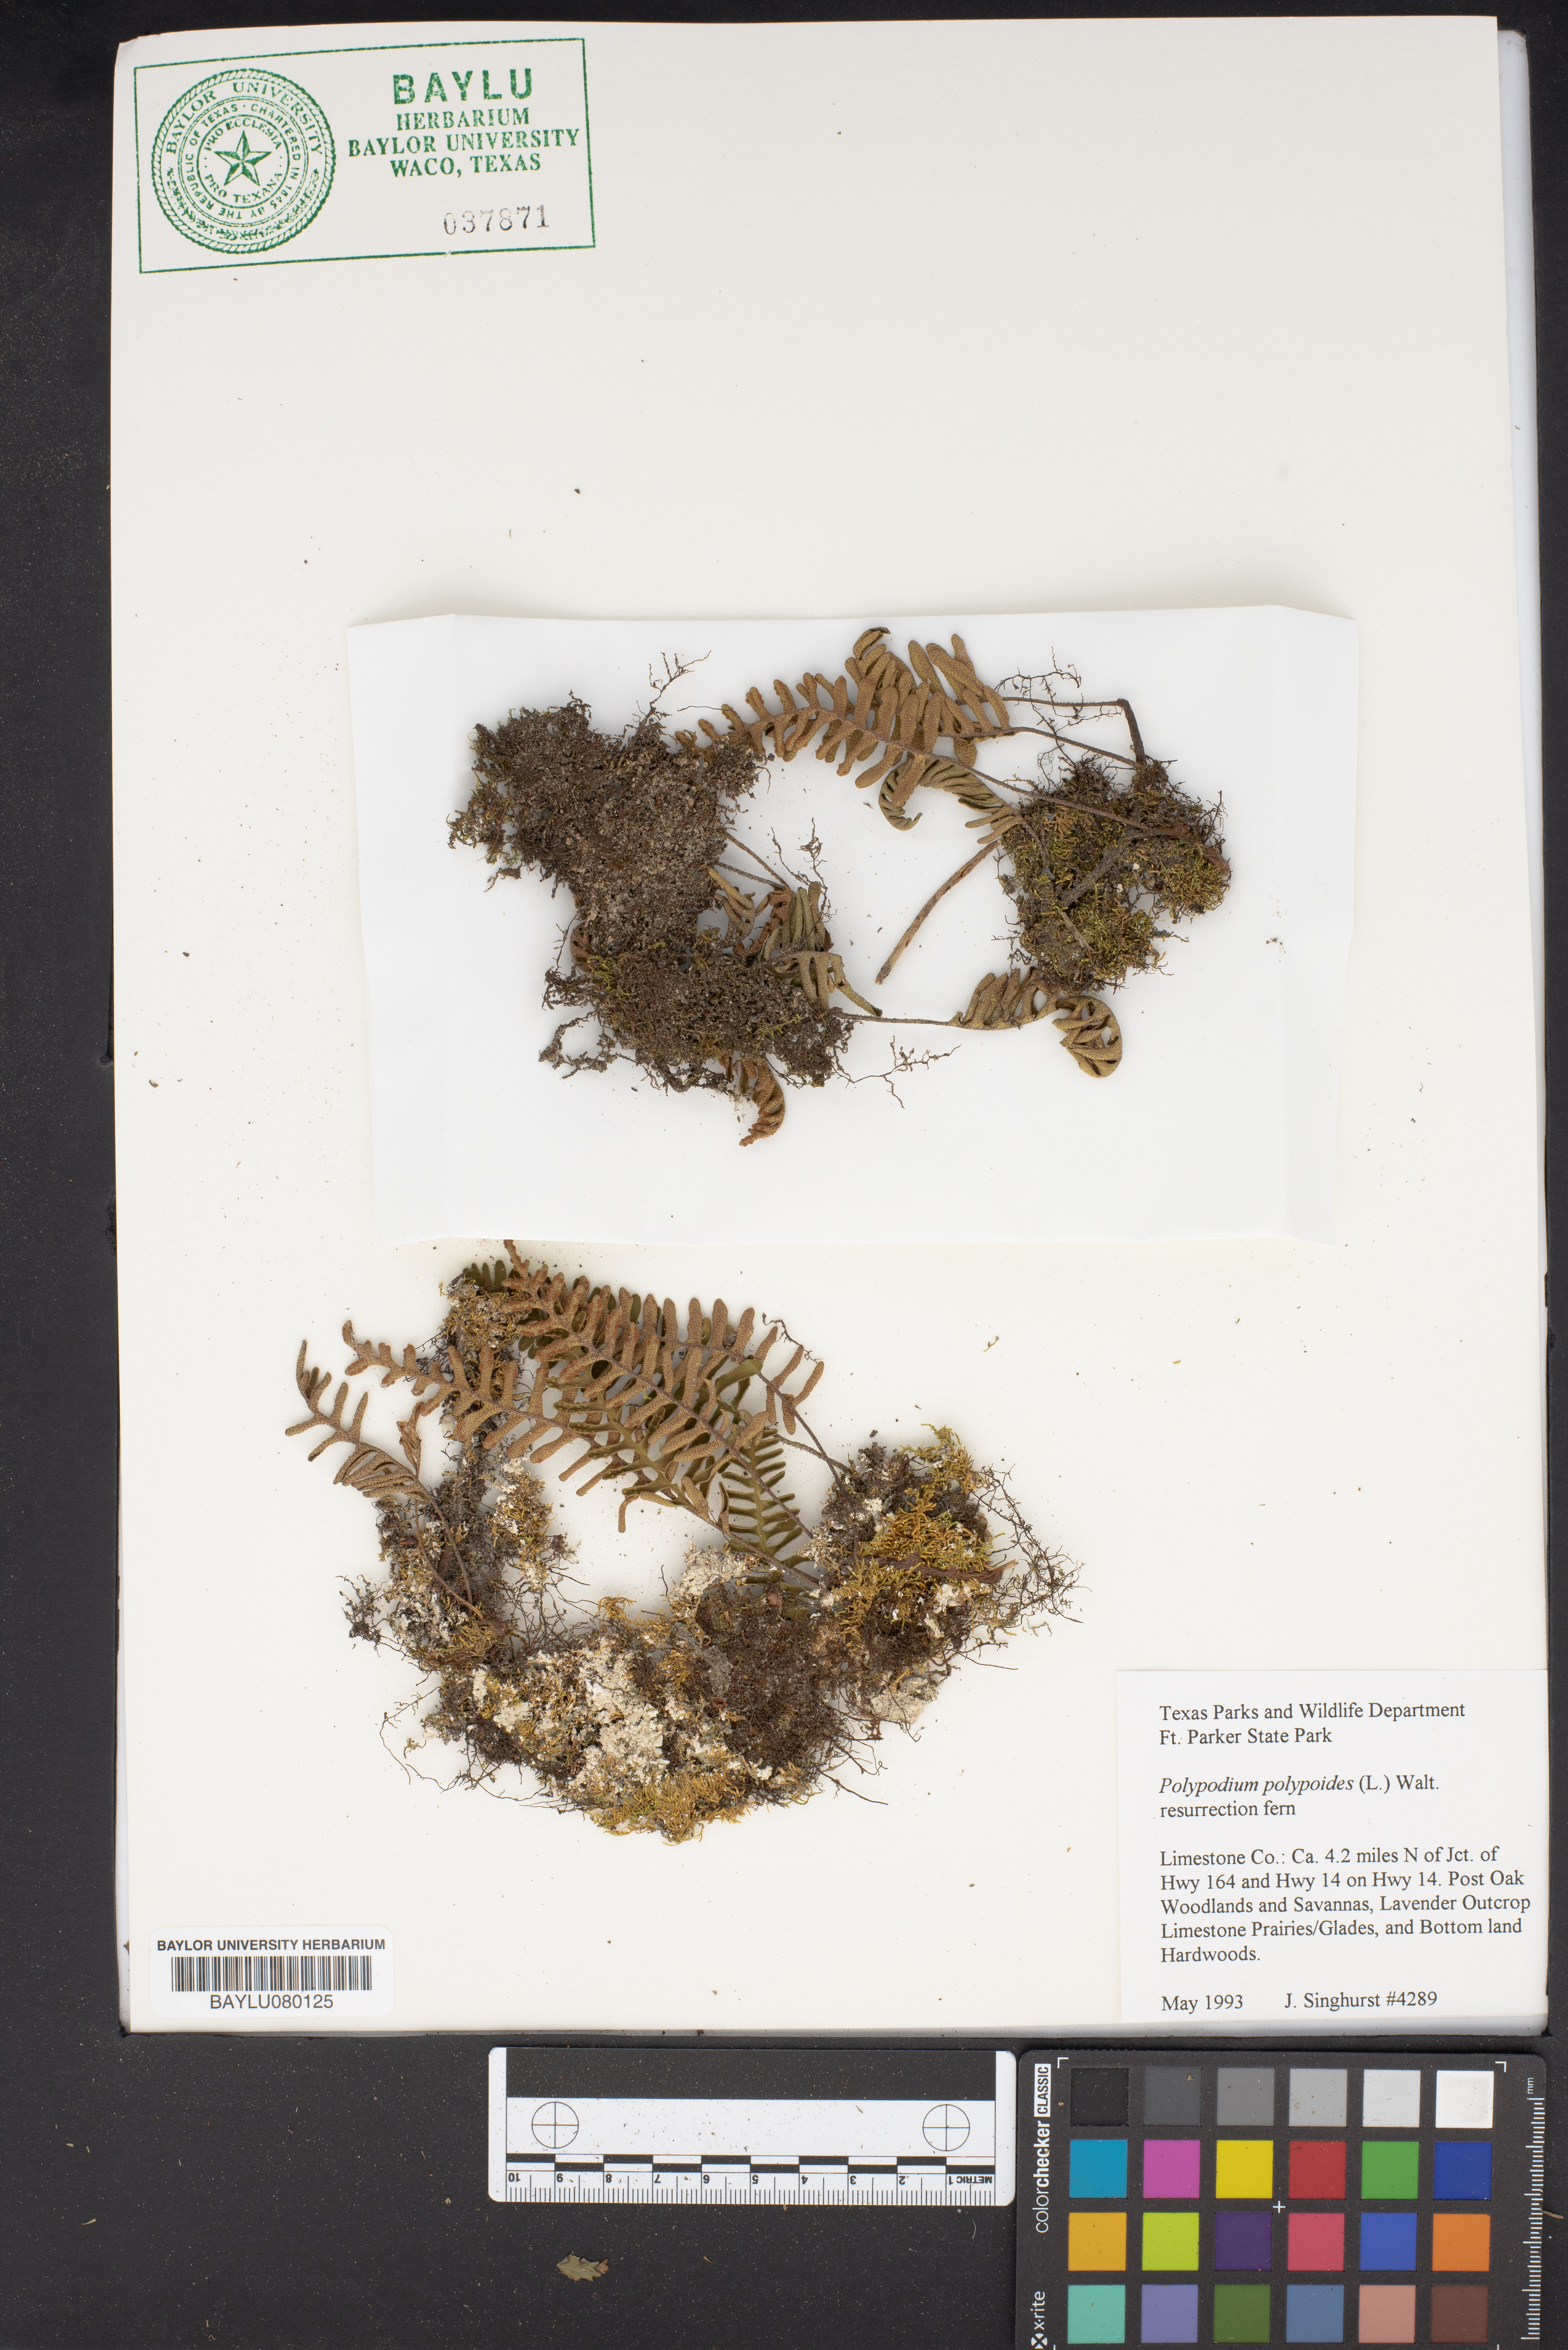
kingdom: Plantae
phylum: Tracheophyta
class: Polypodiopsida
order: Polypodiales
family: Polypodiaceae
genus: Pleopeltis
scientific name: Pleopeltis polypodioides
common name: Resurrection fern
